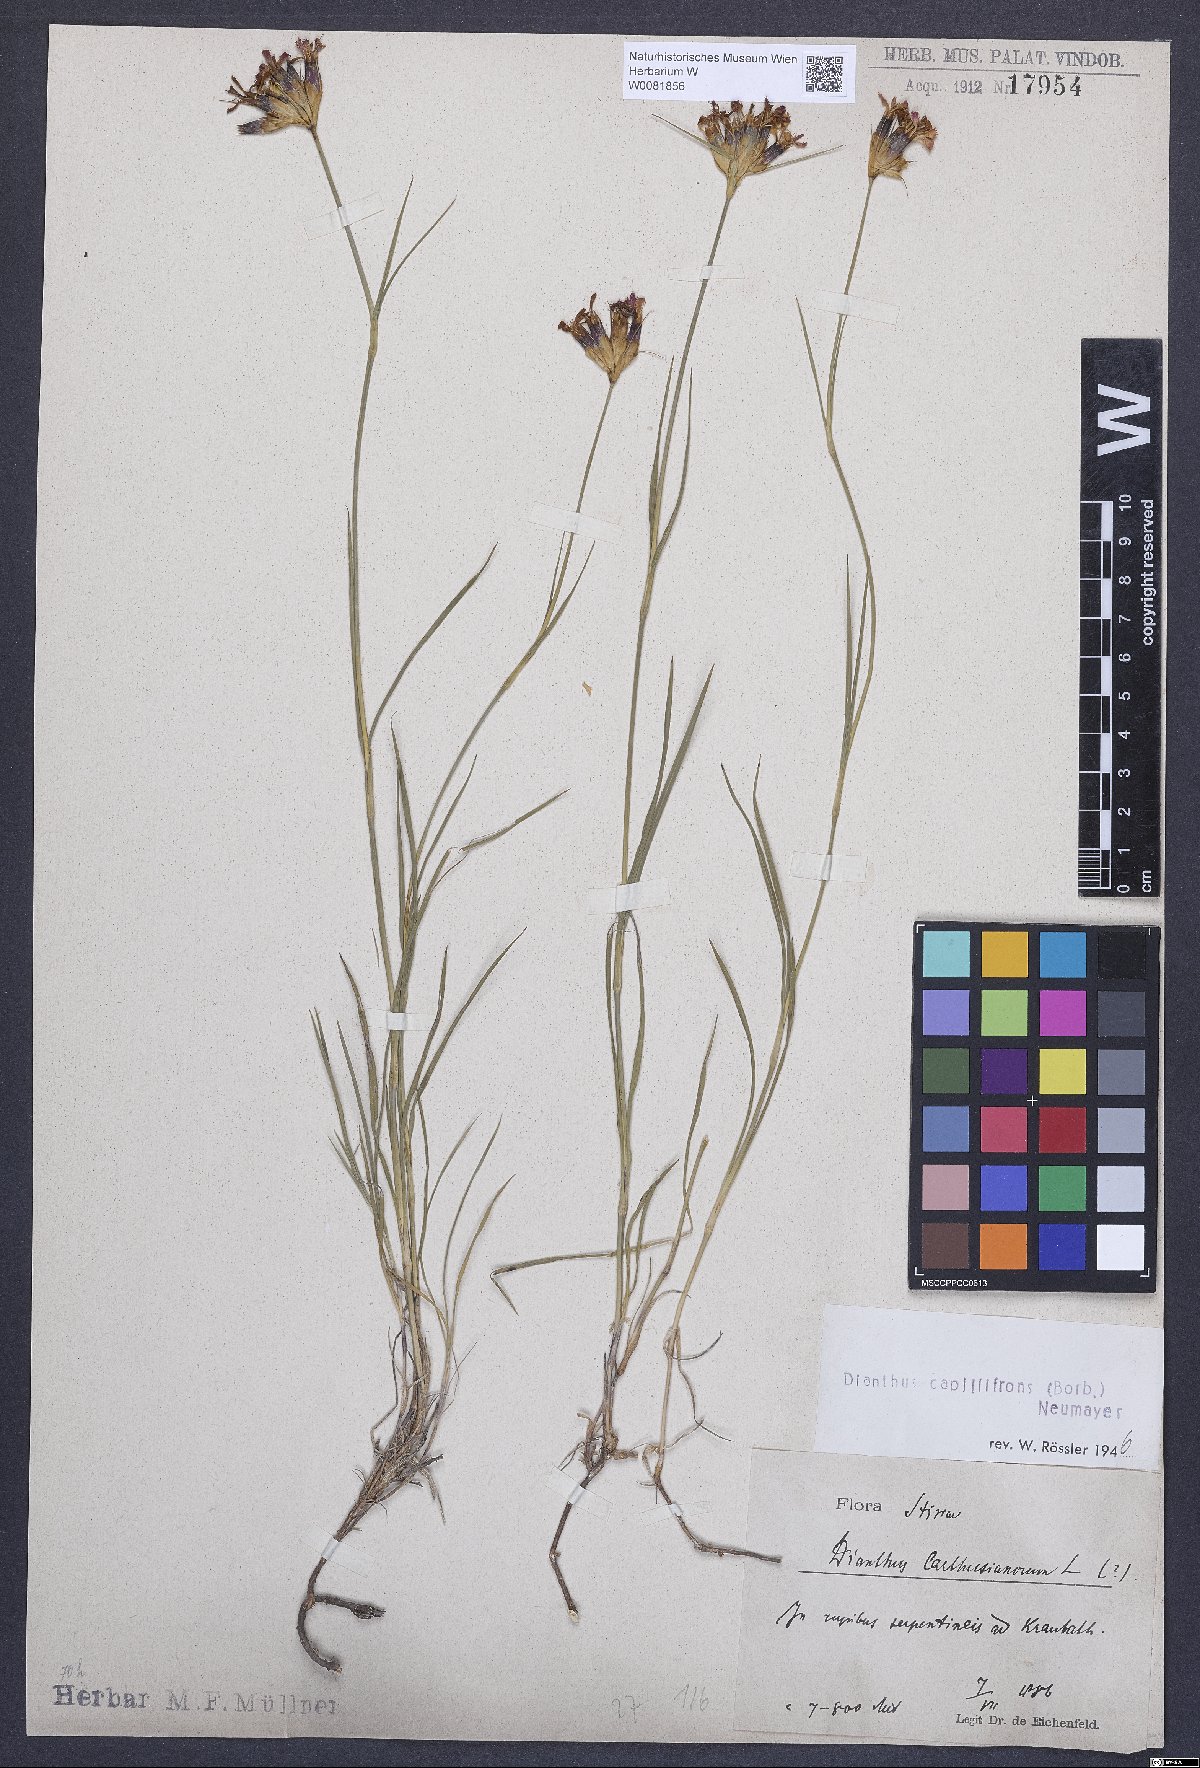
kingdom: Plantae
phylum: Tracheophyta
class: Magnoliopsida
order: Caryophyllales
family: Caryophyllaceae
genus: Dianthus
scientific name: Dianthus carthusianorum
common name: Carthusian pink
